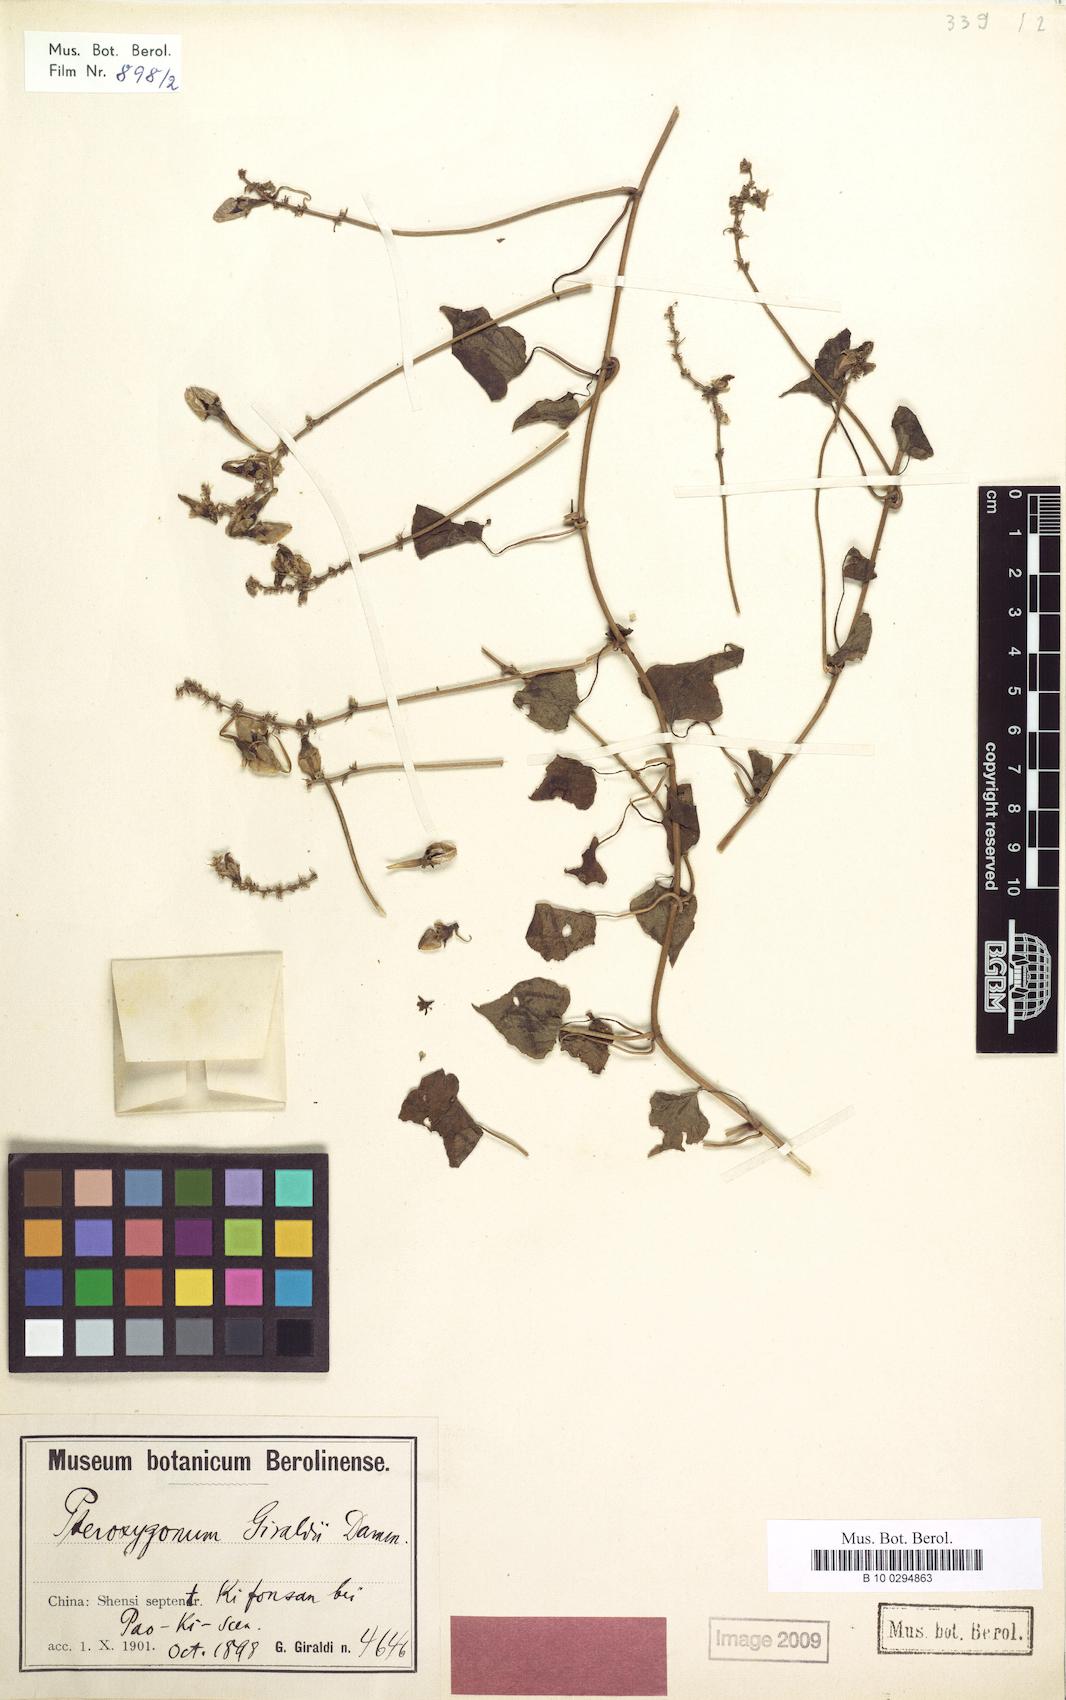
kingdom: Plantae
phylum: Tracheophyta
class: Magnoliopsida
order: Caryophyllales
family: Polygonaceae
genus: Pteroxygonum
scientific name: Pteroxygonum giraldii
